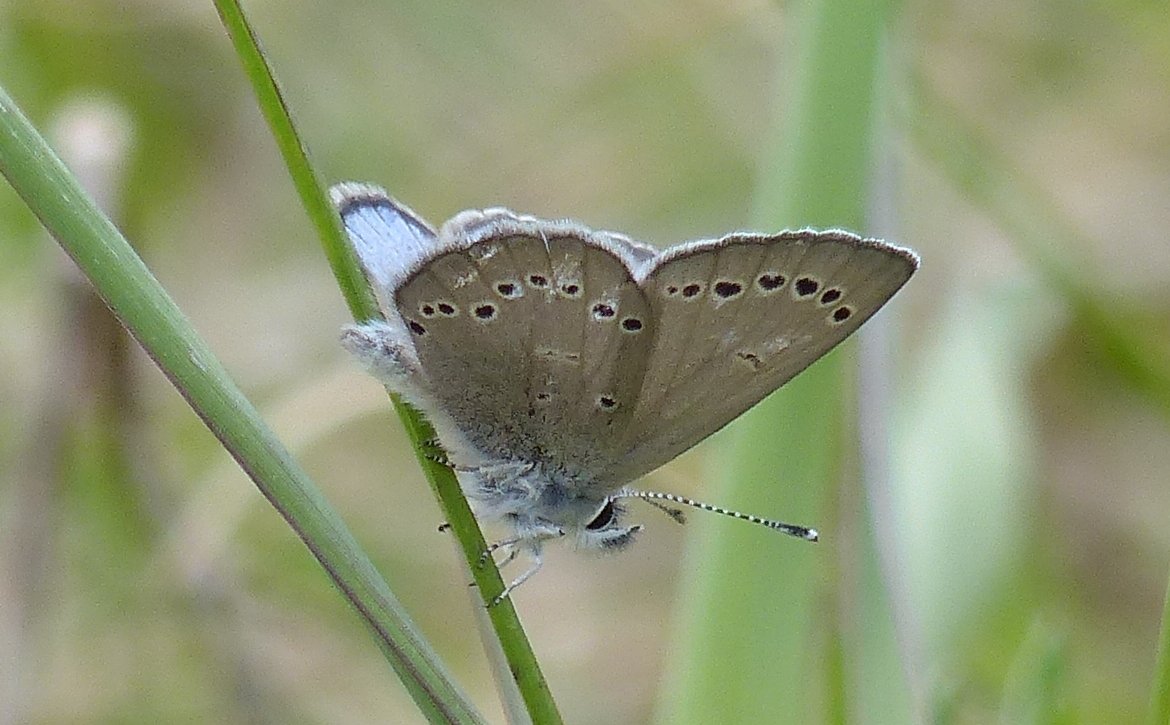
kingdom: Animalia
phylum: Arthropoda
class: Insecta
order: Lepidoptera
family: Lycaenidae
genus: Glaucopsyche
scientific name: Glaucopsyche lygdamus
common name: Silvery Blue
